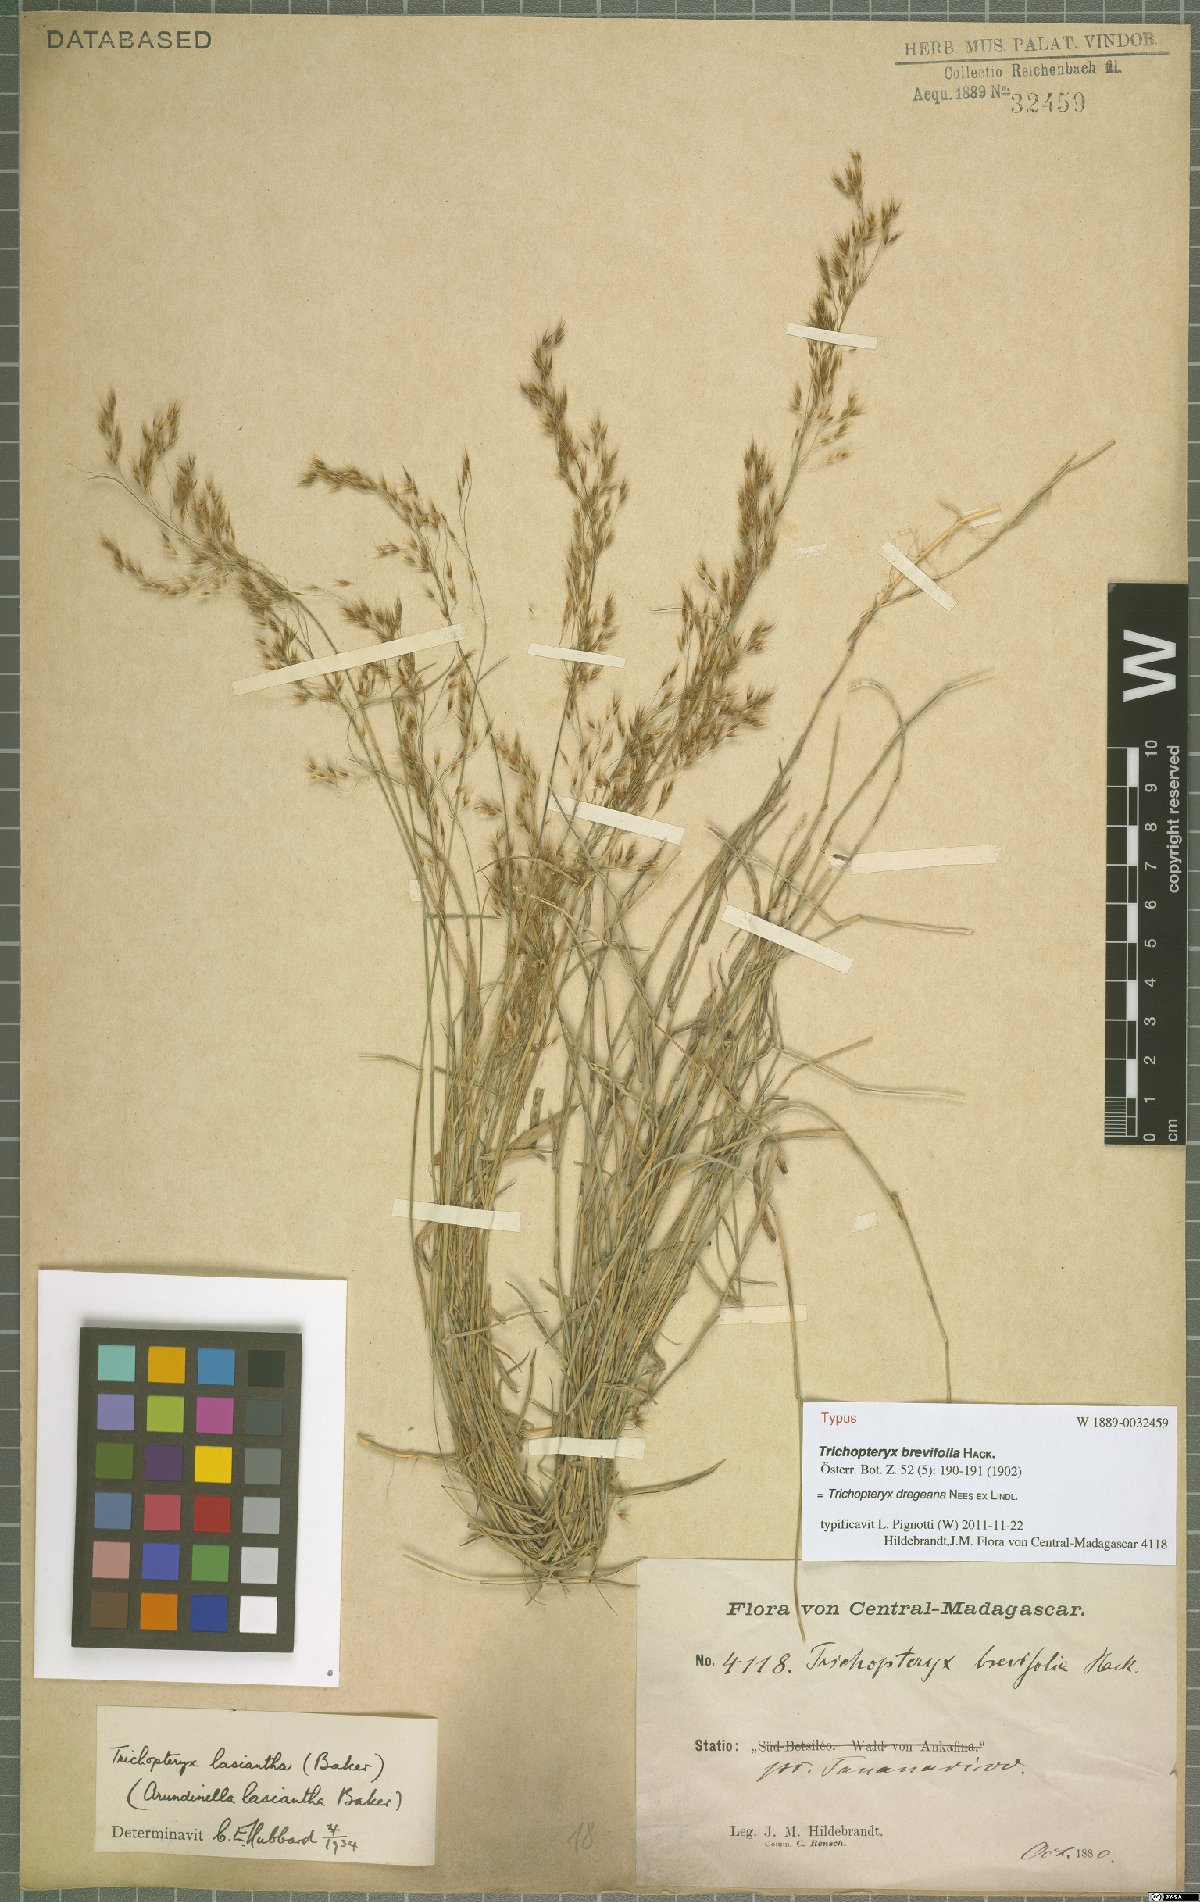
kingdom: Plantae
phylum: Tracheophyta
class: Liliopsida
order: Poales
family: Poaceae
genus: Trichopteryx
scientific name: Trichopteryx dregeana
